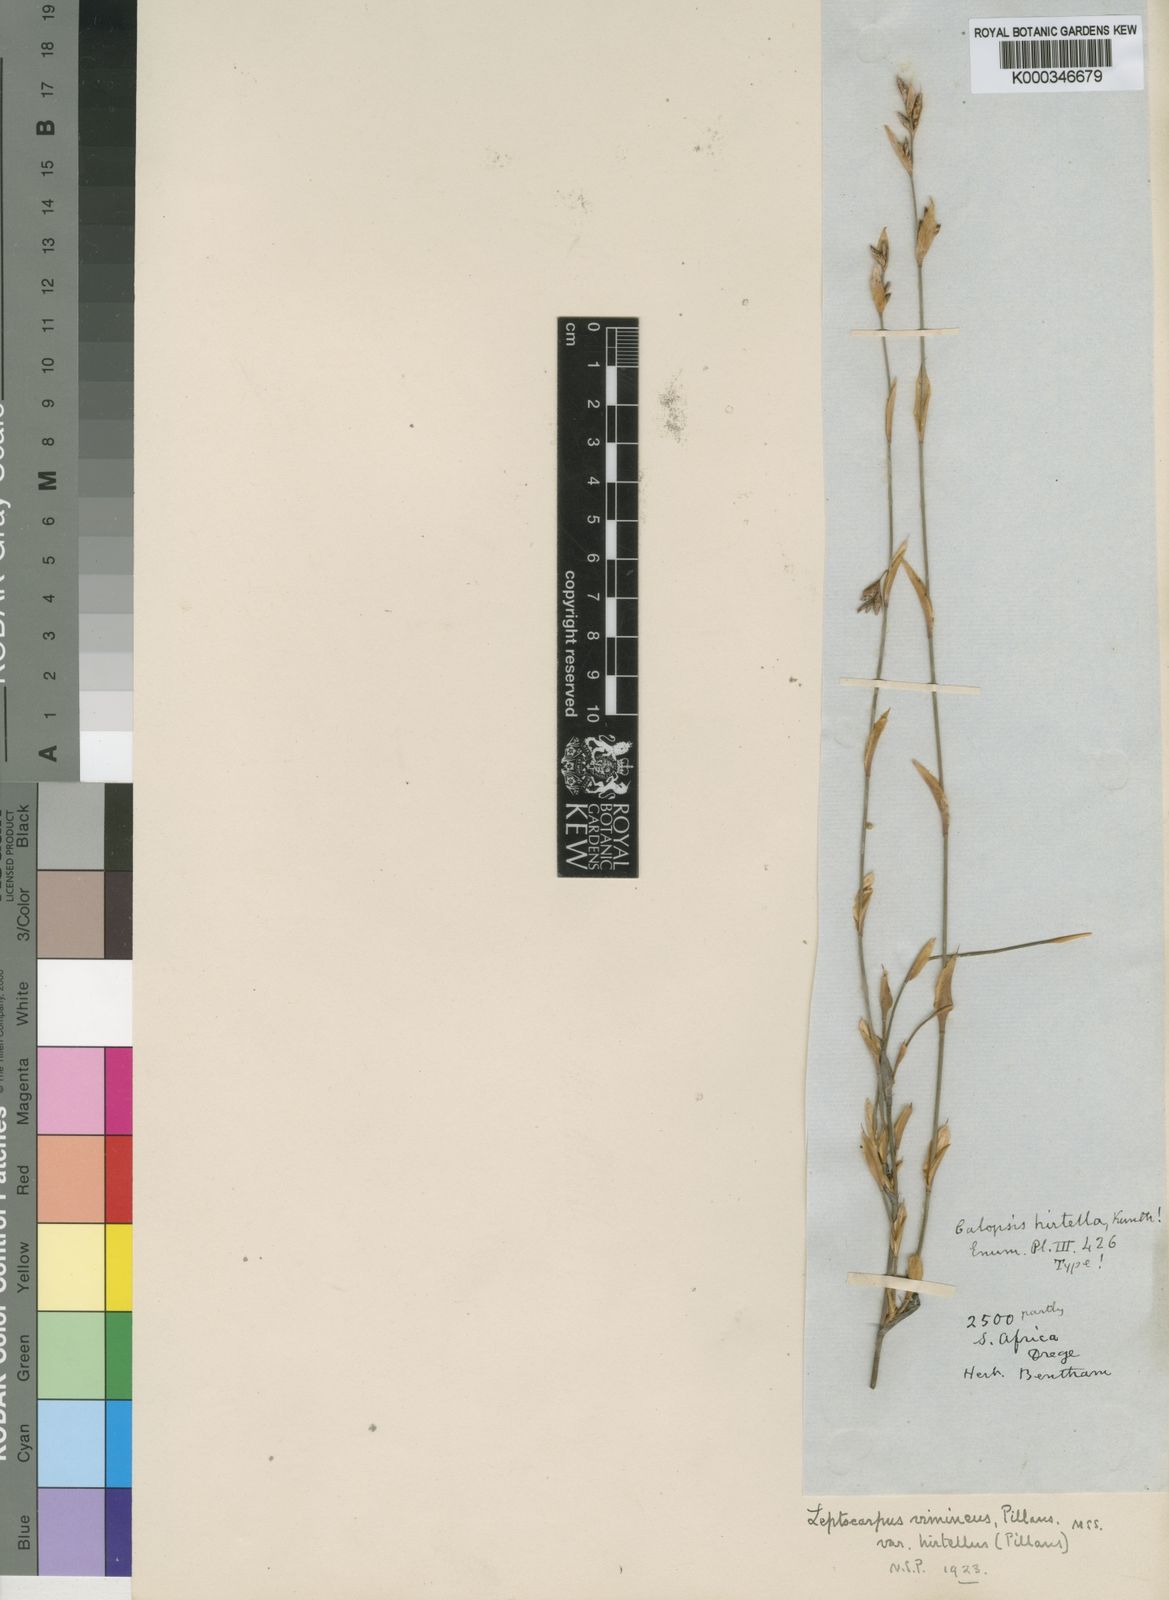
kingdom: Plantae
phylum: Tracheophyta
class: Liliopsida
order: Poales
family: Restionaceae
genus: Restio
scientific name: Restio vimineus
